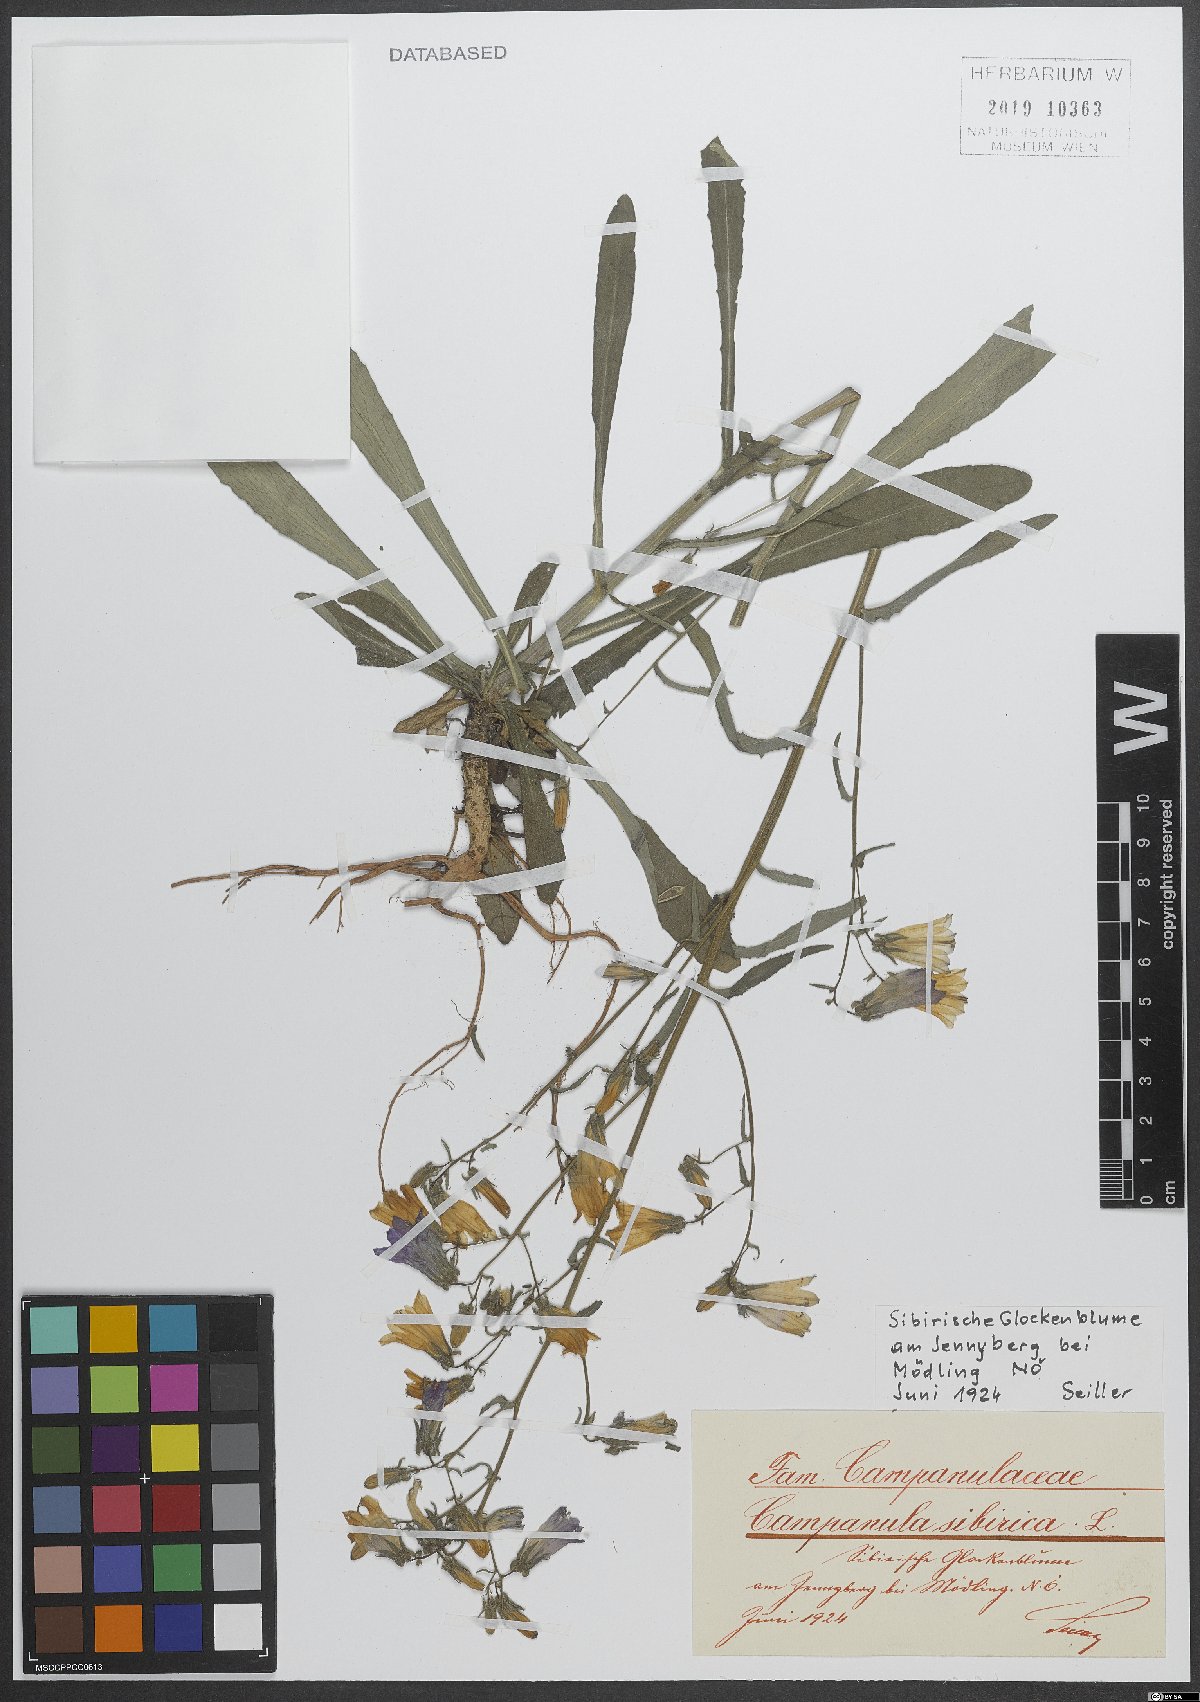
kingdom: Plantae
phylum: Tracheophyta
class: Magnoliopsida
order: Asterales
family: Campanulaceae
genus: Campanula
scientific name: Campanula sibirica
